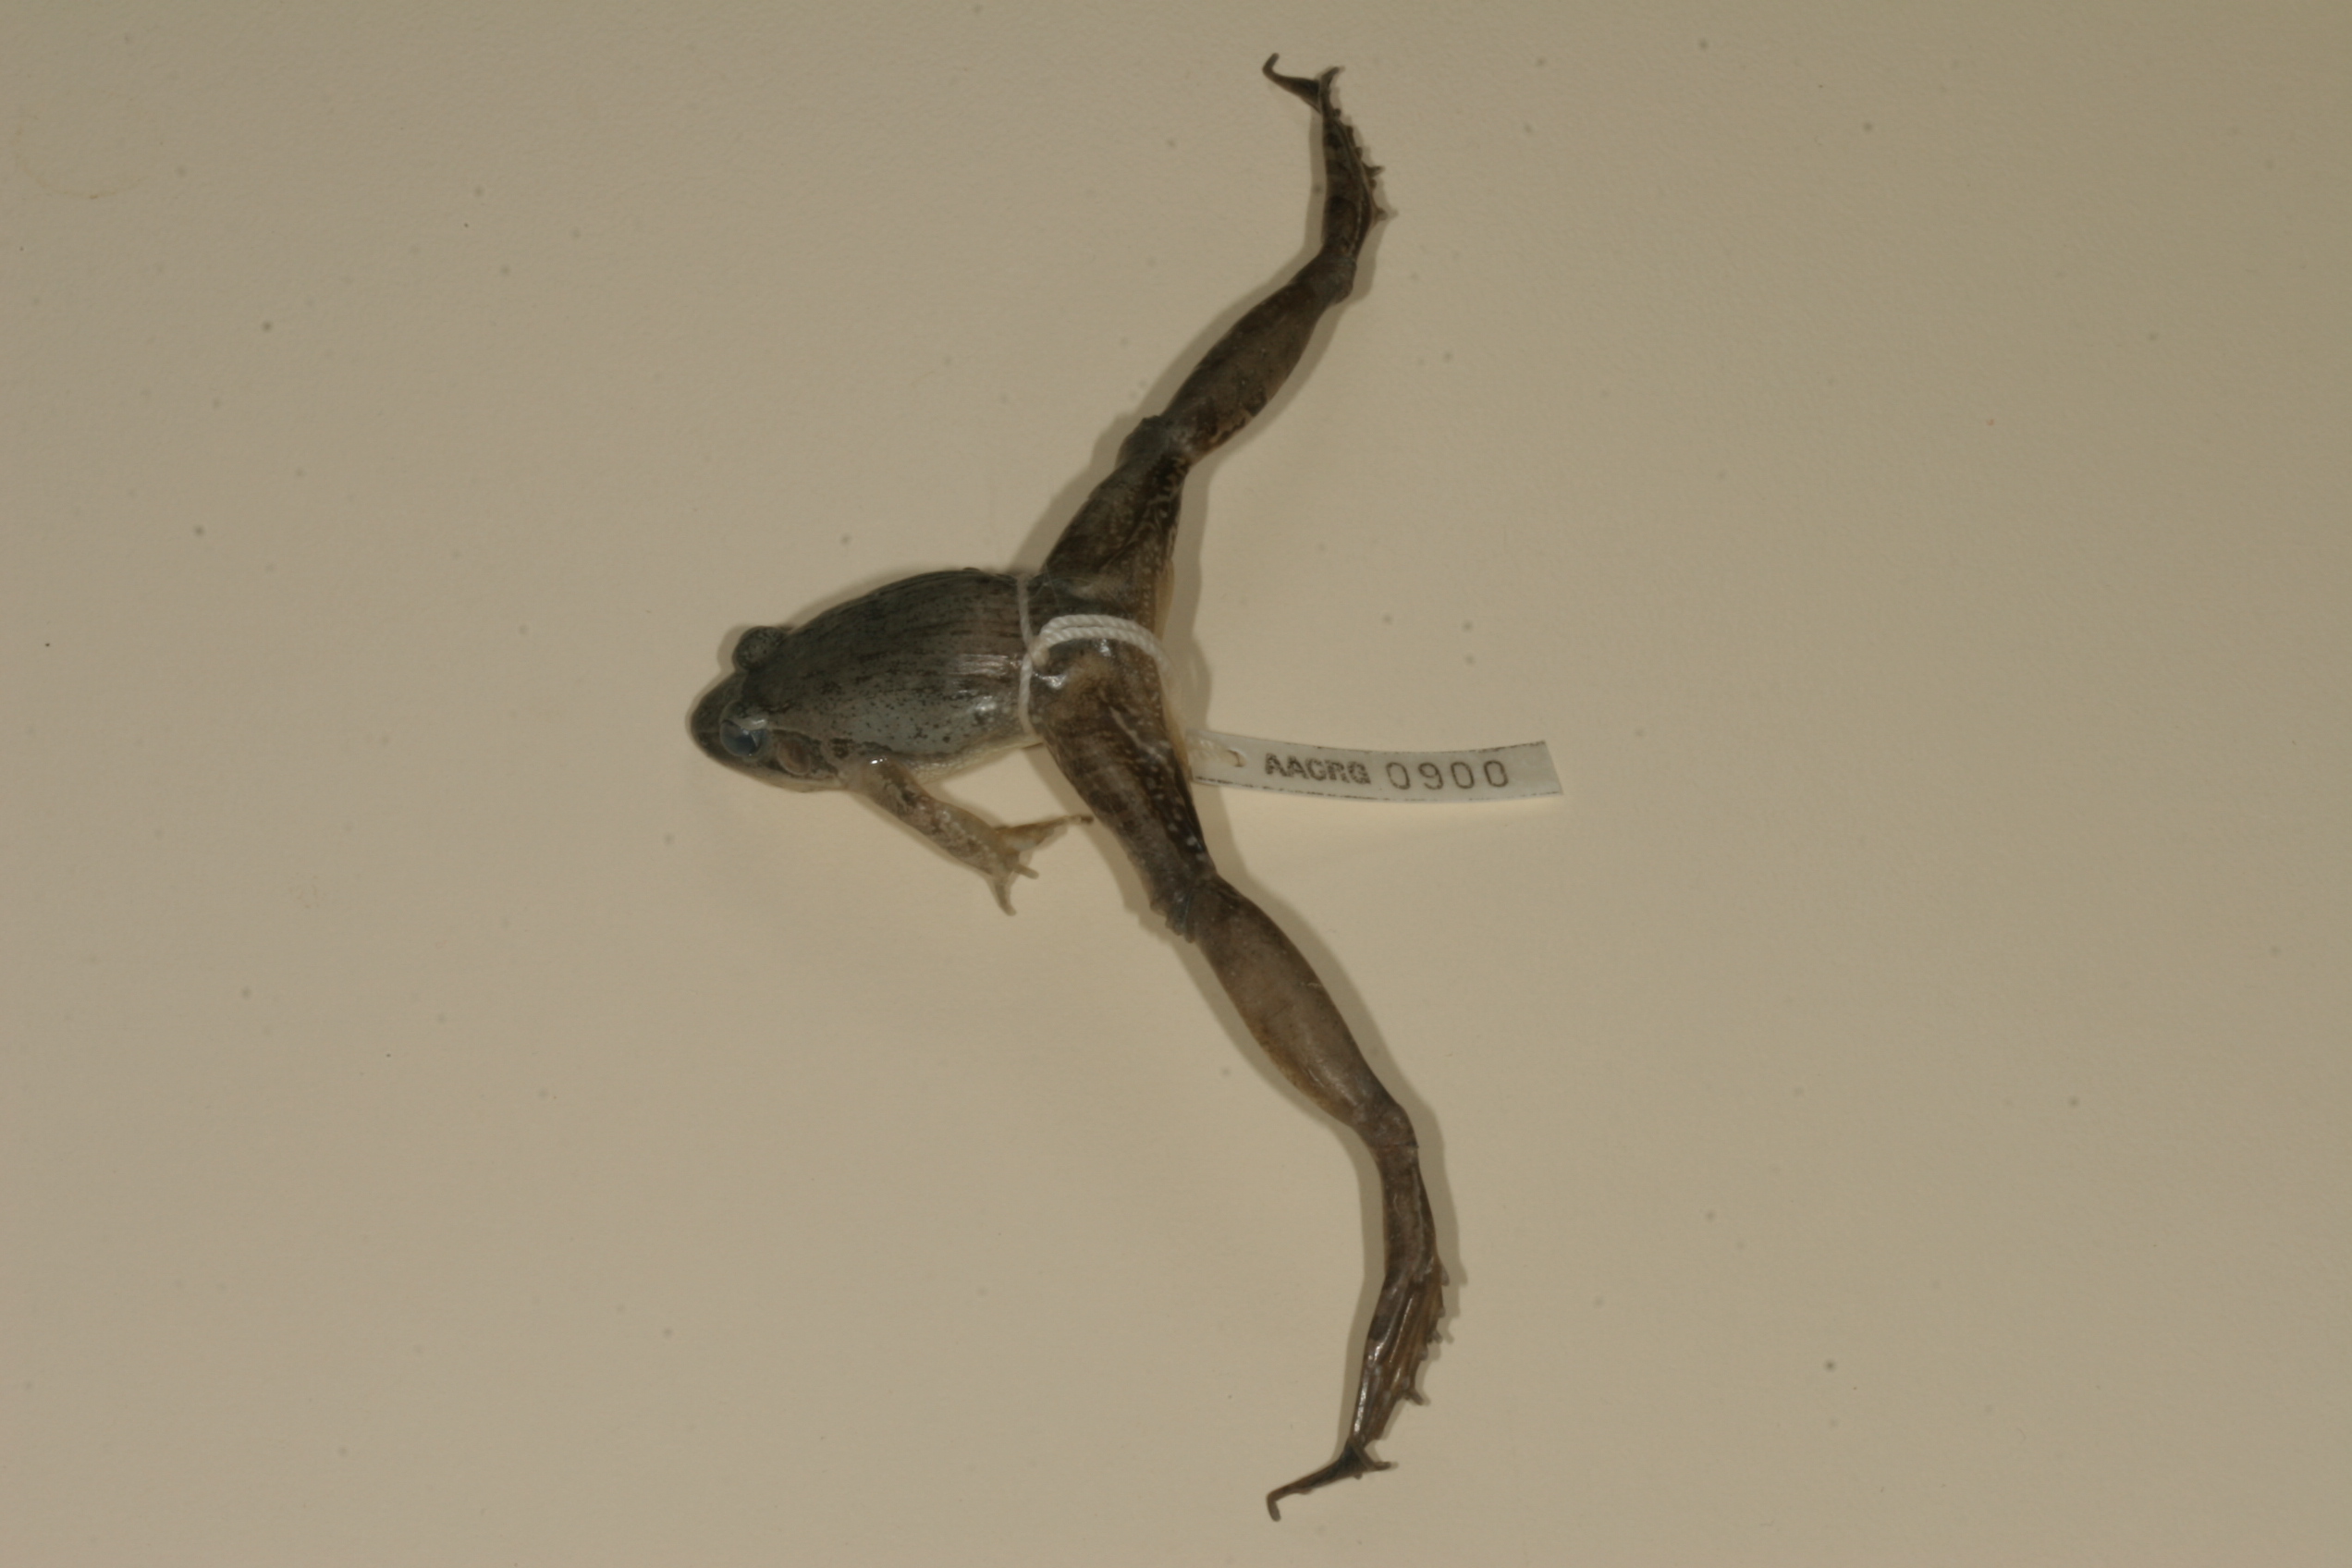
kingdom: Animalia
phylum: Chordata
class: Amphibia
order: Anura
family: Ptychadenidae
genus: Ptychadena
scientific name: Ptychadena anchietae
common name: Anchieta's ridged frog
